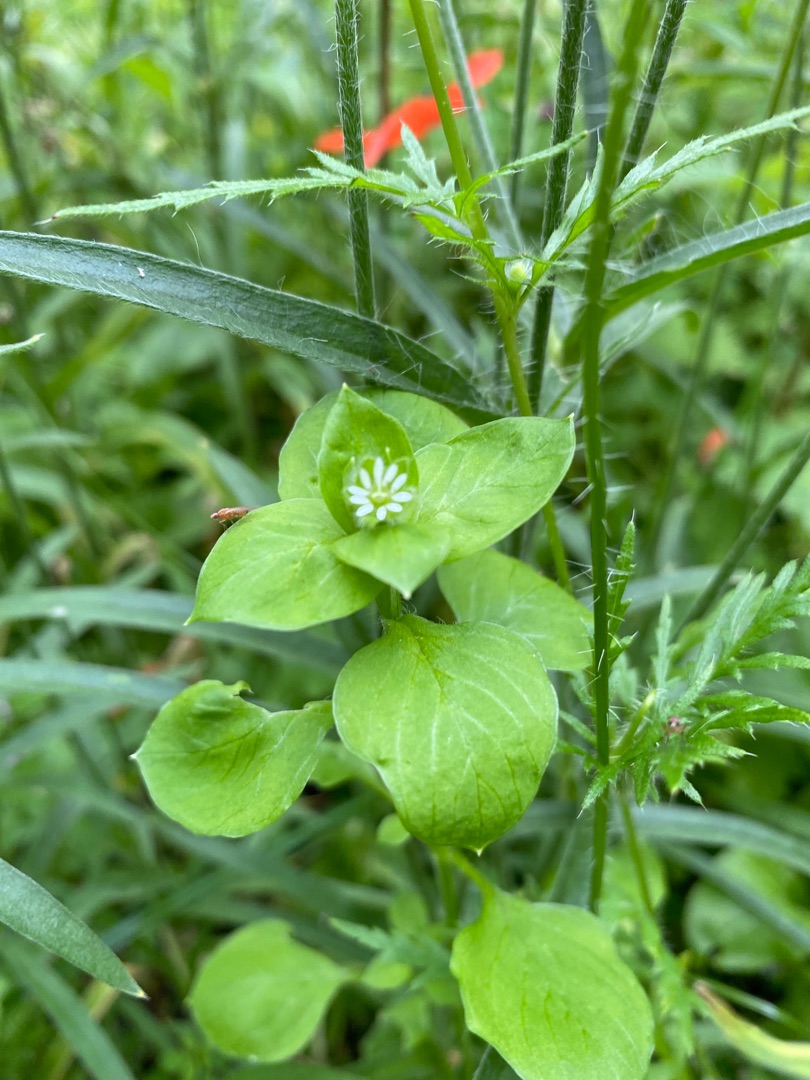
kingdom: Plantae
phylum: Tracheophyta
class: Magnoliopsida
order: Caryophyllales
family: Caryophyllaceae
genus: Stellaria
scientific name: Stellaria media
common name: Almindelig fuglegræs
